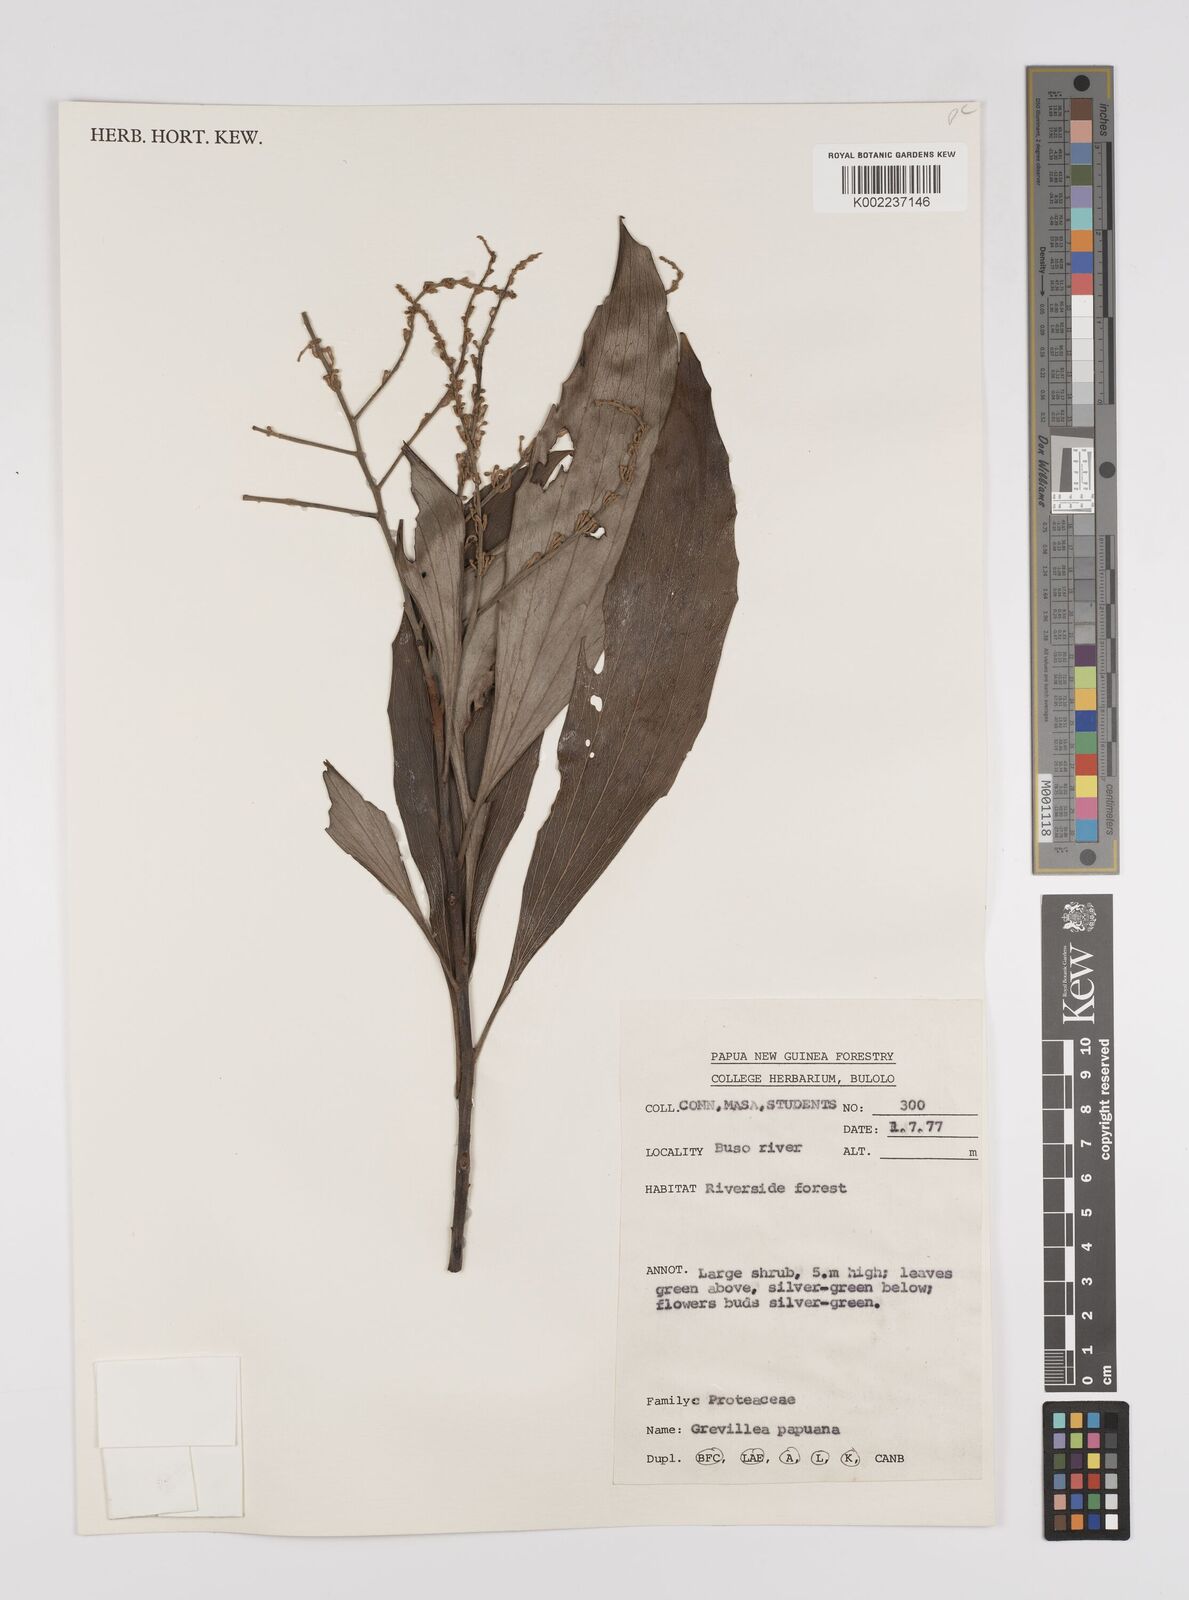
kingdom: Plantae
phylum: Tracheophyta
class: Magnoliopsida
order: Proteales
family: Proteaceae
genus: Grevillea
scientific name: Grevillea papuana
